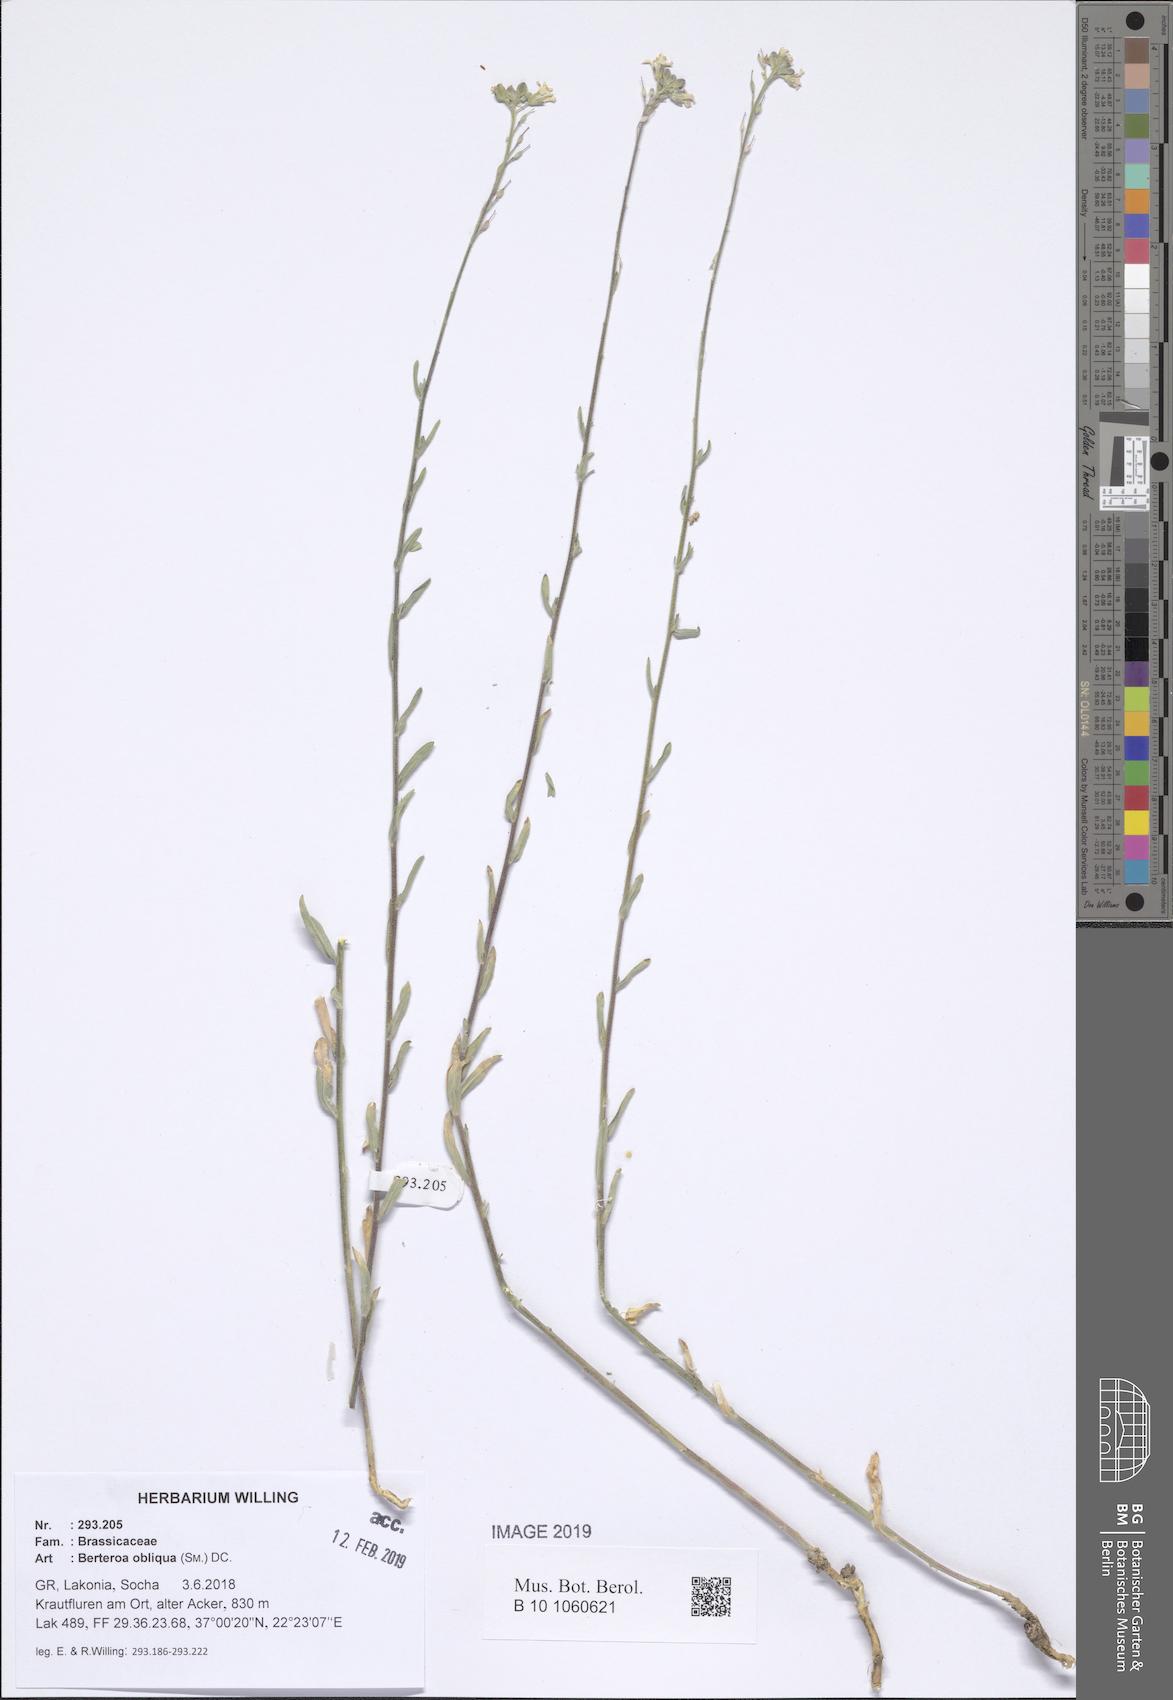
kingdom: Plantae
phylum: Tracheophyta
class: Magnoliopsida
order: Brassicales
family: Brassicaceae
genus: Berteroa
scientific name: Berteroa obliqua
